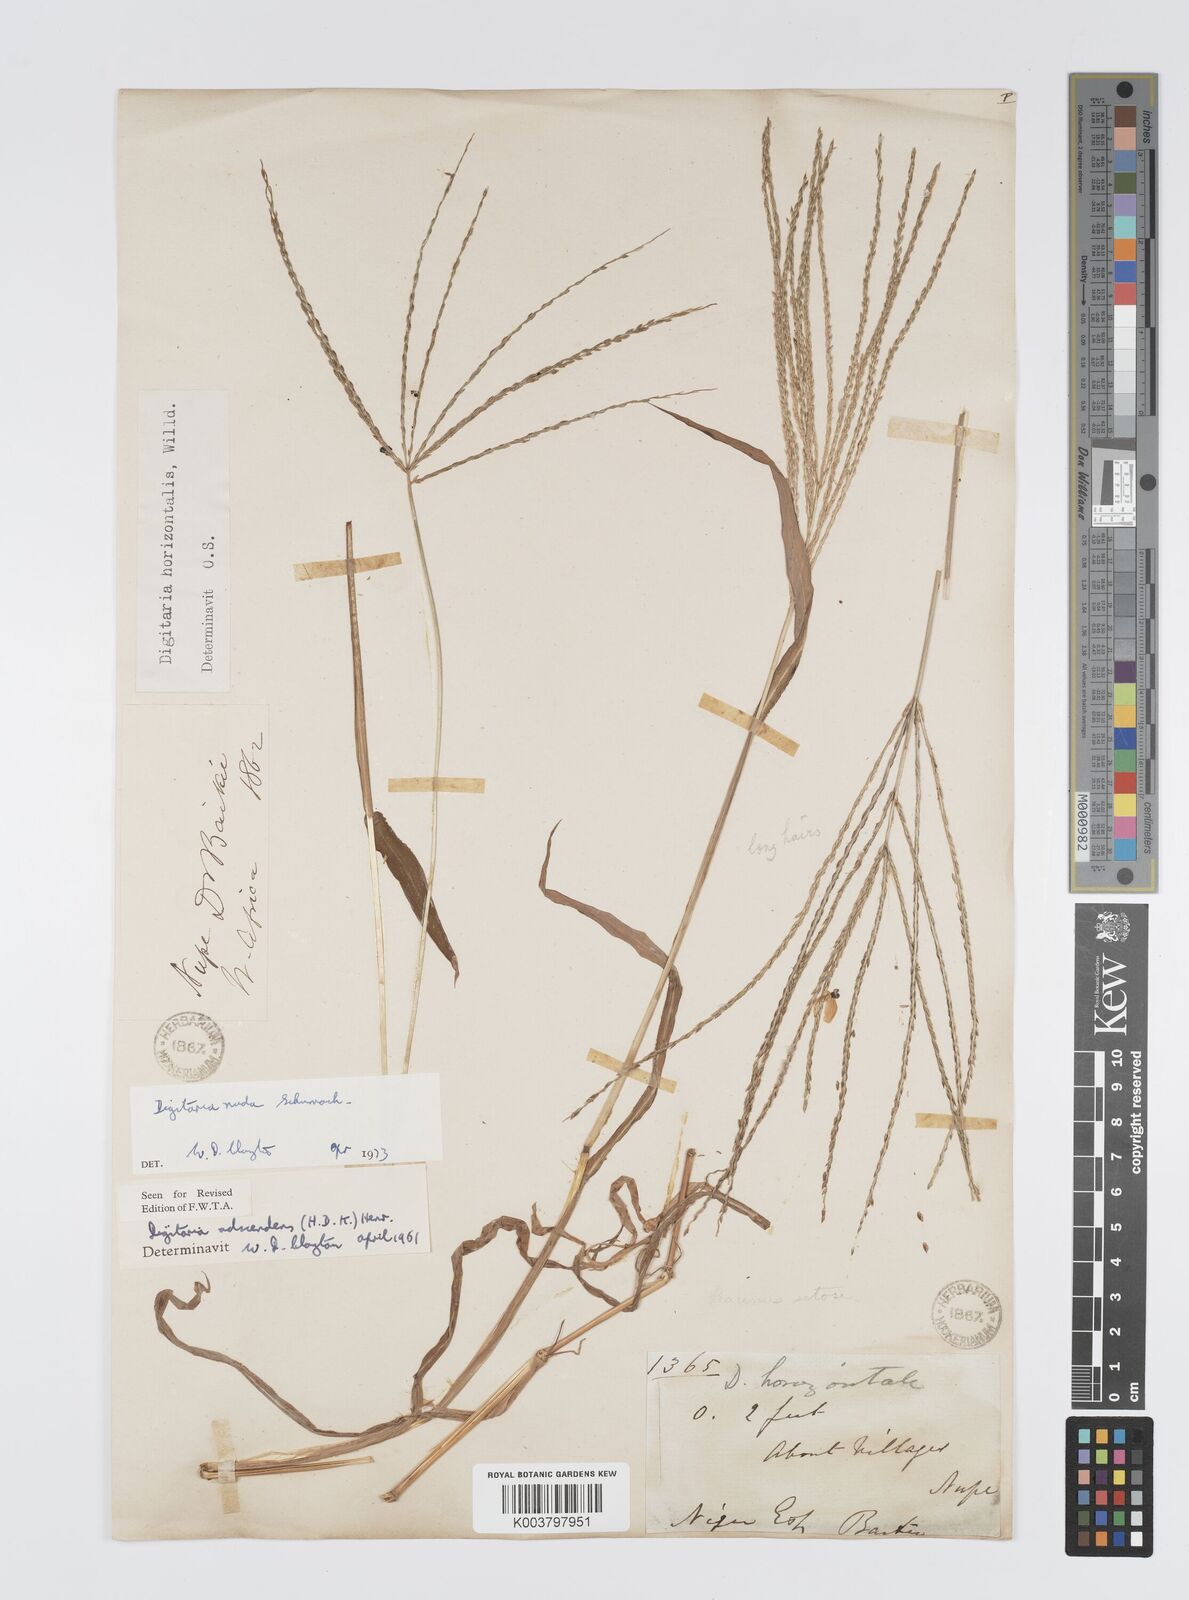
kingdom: Plantae
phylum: Tracheophyta
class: Liliopsida
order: Poales
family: Poaceae
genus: Digitaria
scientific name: Digitaria nuda
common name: Naked crabgrass
